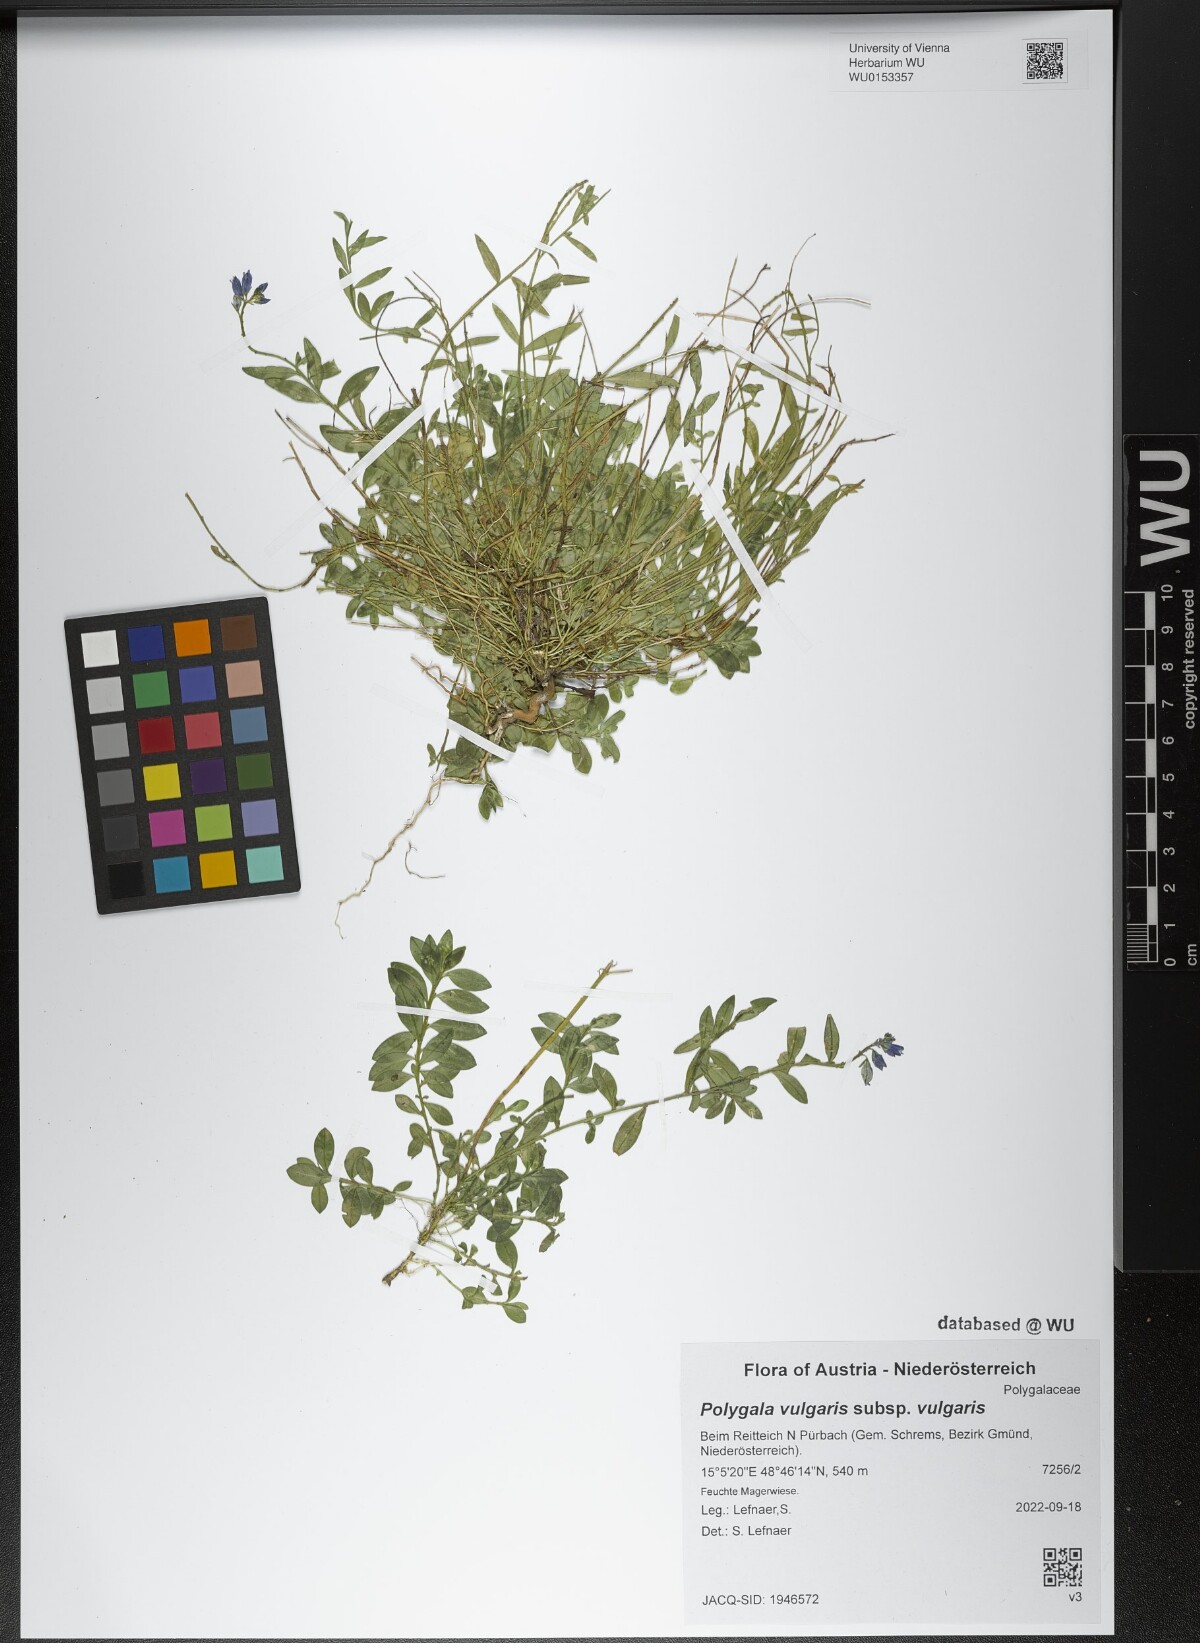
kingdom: Plantae
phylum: Tracheophyta
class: Magnoliopsida
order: Fabales
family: Polygalaceae
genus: Polygala
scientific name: Polygala vulgaris
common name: Common milkwort
